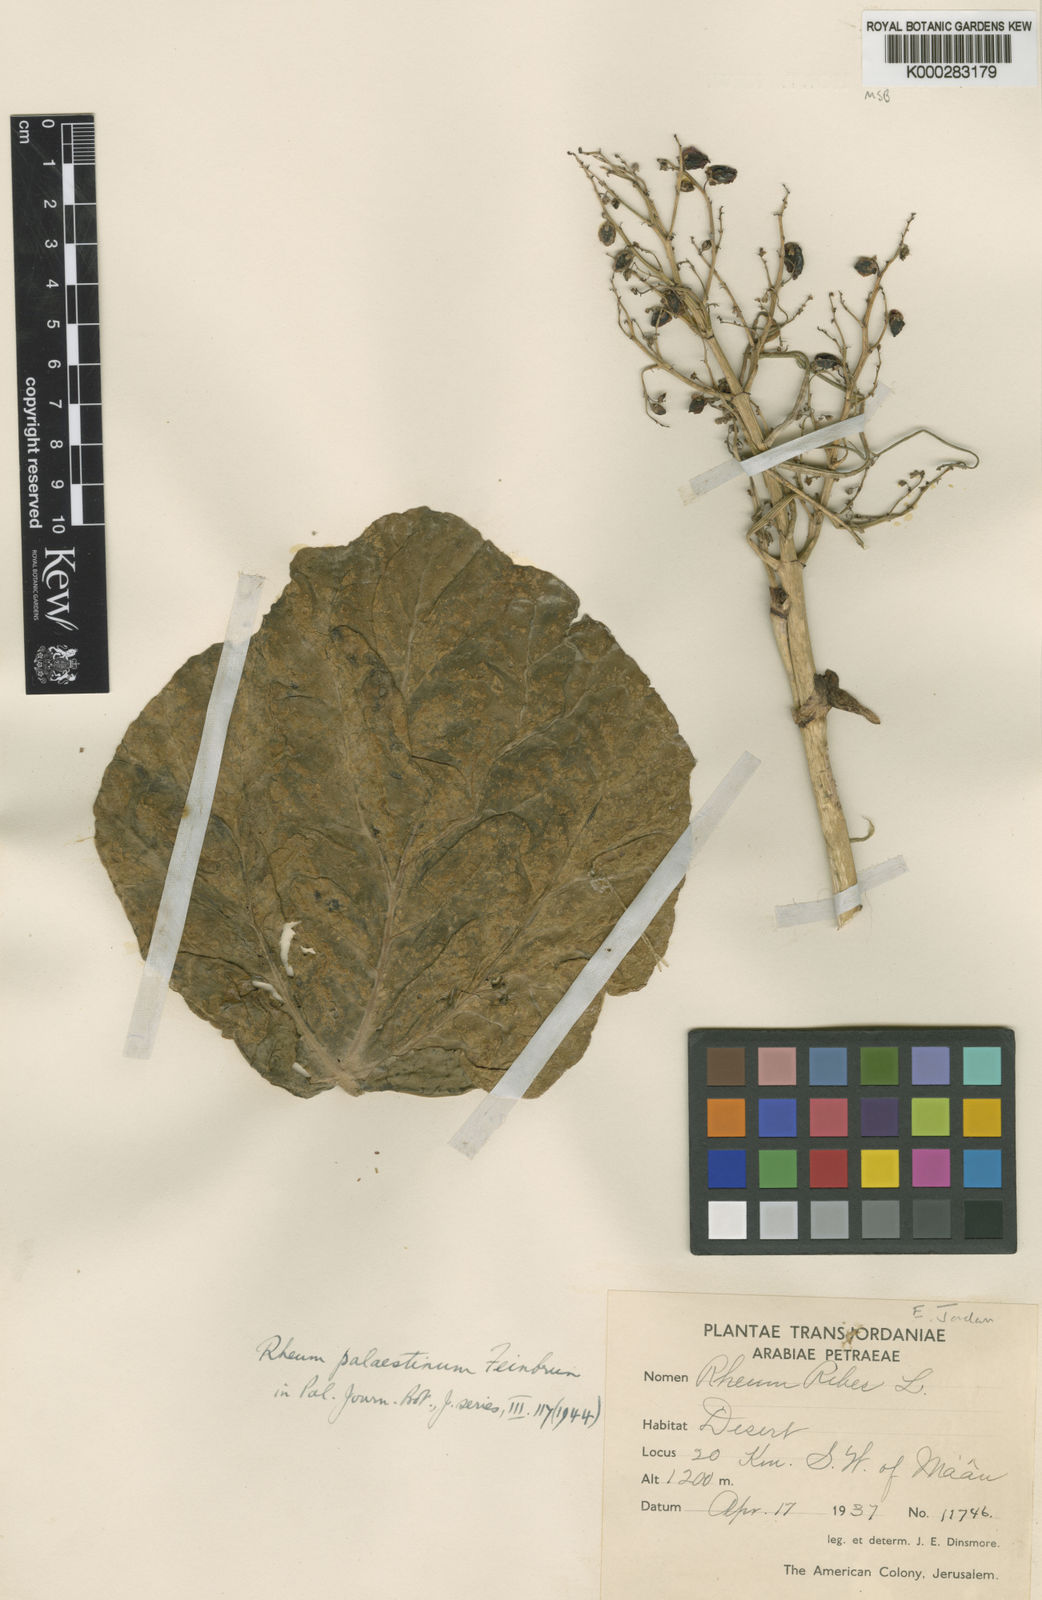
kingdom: Plantae
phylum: Tracheophyta
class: Magnoliopsida
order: Caryophyllales
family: Polygonaceae
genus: Rheum
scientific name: Rheum palaestinum
